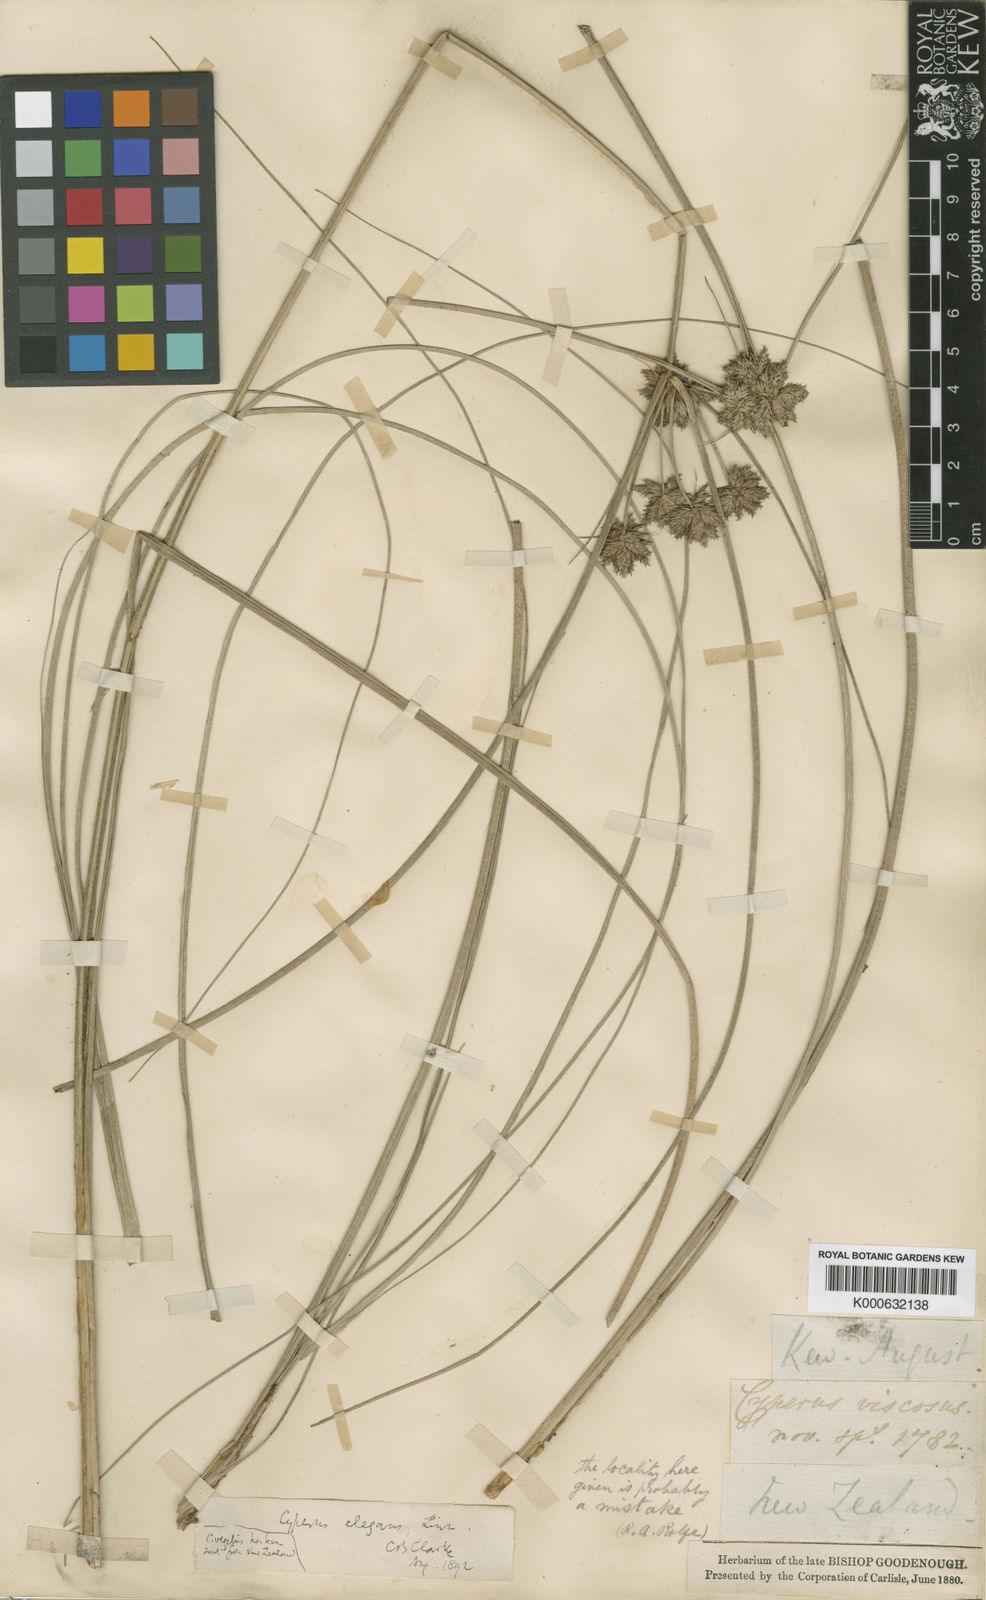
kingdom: Plantae
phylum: Tracheophyta
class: Liliopsida
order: Poales
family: Cyperaceae
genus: Cyperus
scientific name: Cyperus elegans
